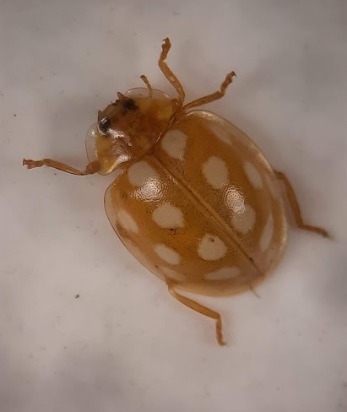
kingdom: Animalia
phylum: Arthropoda
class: Insecta
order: Coleoptera
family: Coccinellidae
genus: Halyzia
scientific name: Halyzia sedecimguttata
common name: Sekstenplettet mariehøne
